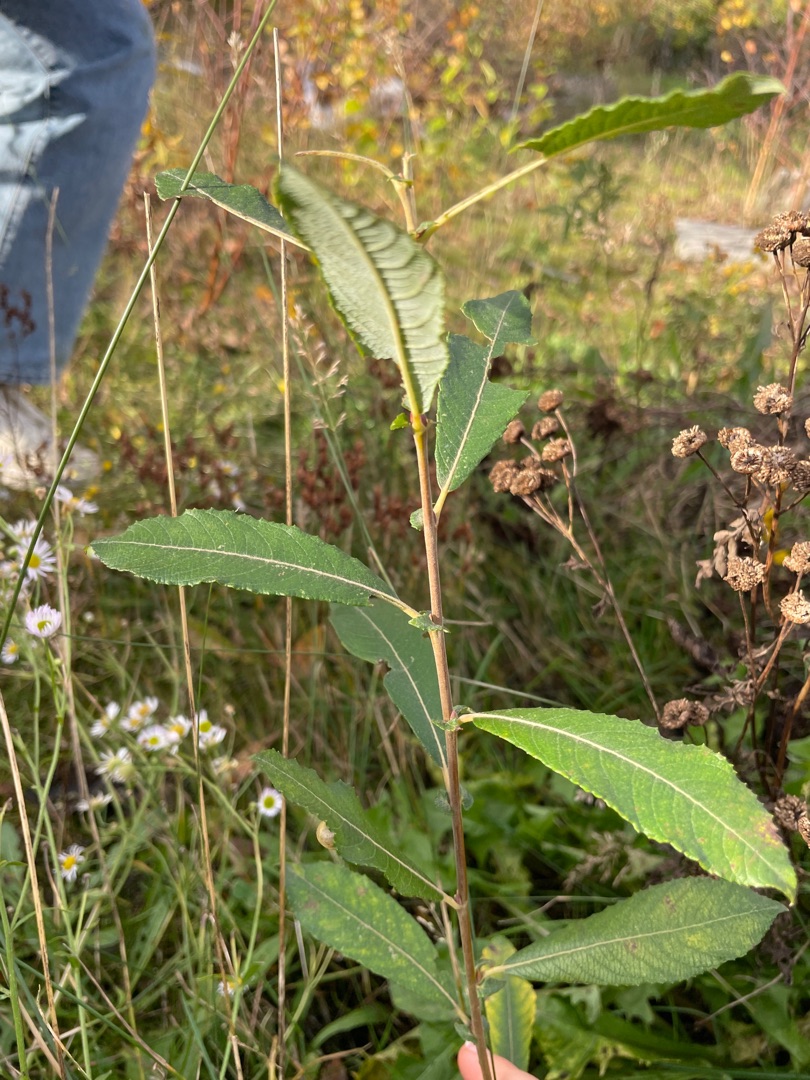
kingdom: Plantae
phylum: Tracheophyta
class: Magnoliopsida
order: Malpighiales
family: Salicaceae
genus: Salix
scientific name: Salix cinerea
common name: Grå-pil
